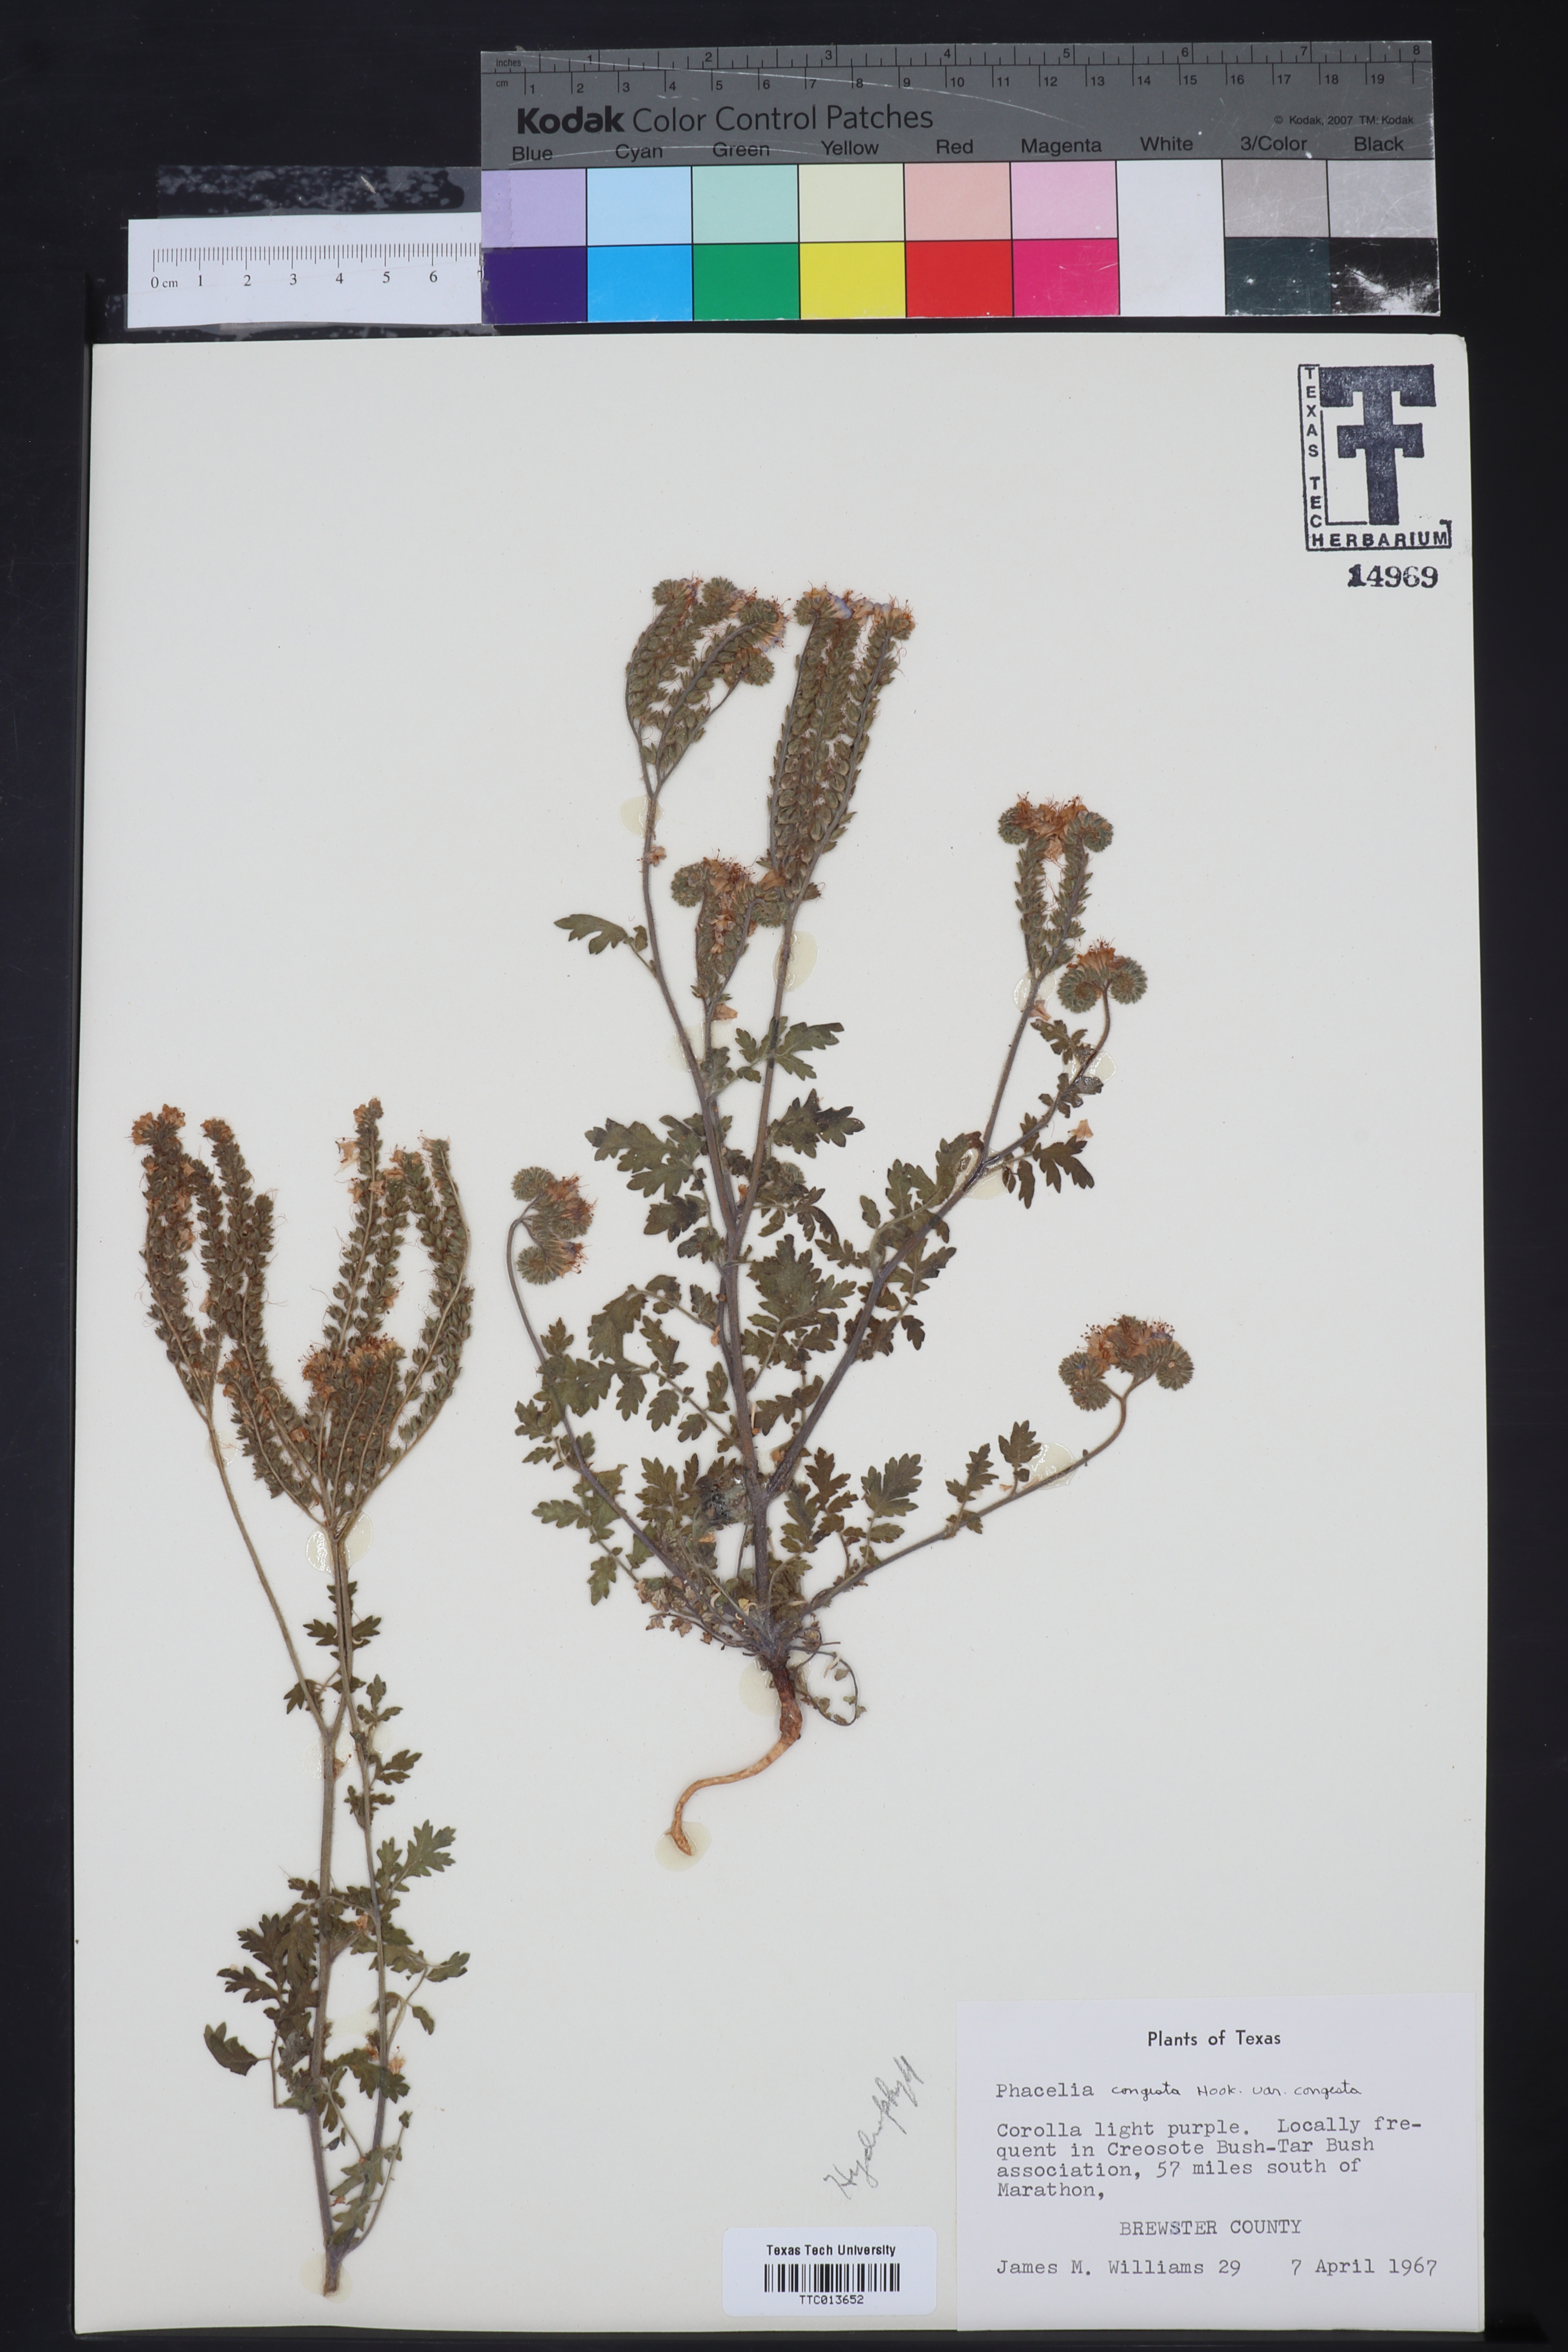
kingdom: Plantae
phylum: Tracheophyta
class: Magnoliopsida
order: Boraginales
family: Hydrophyllaceae
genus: Phacelia
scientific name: Phacelia
